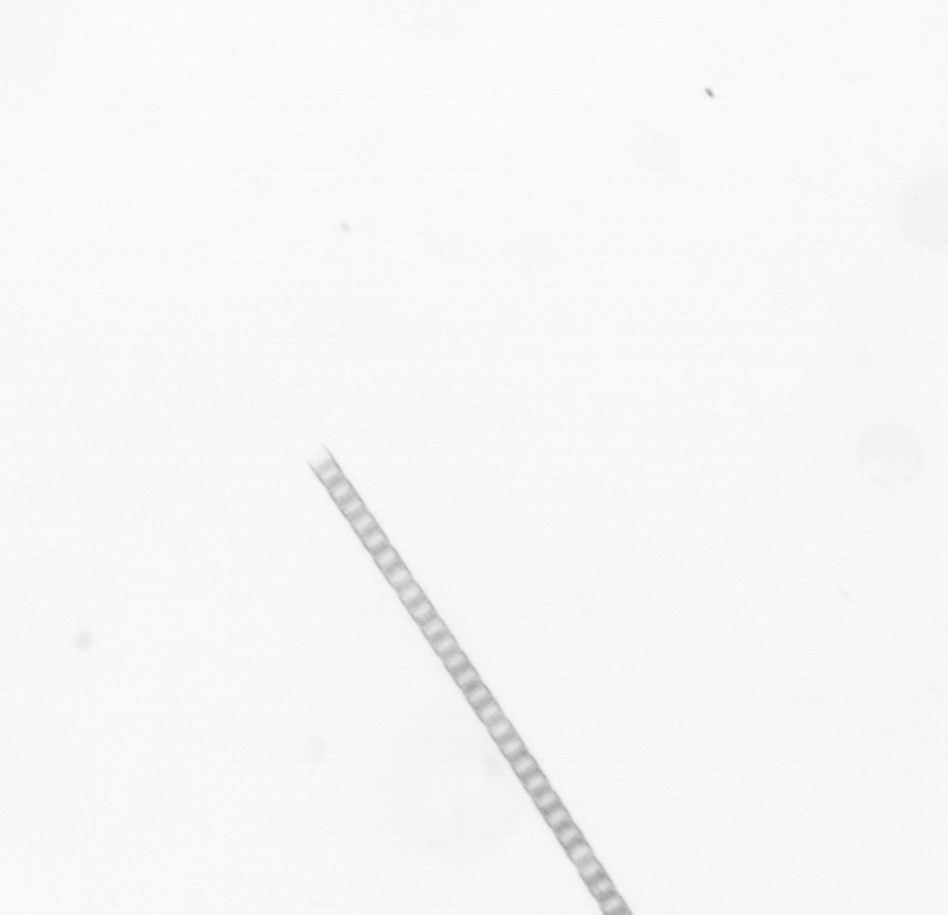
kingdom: Chromista
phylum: Ochrophyta
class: Bacillariophyceae
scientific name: Bacillariophyceae
